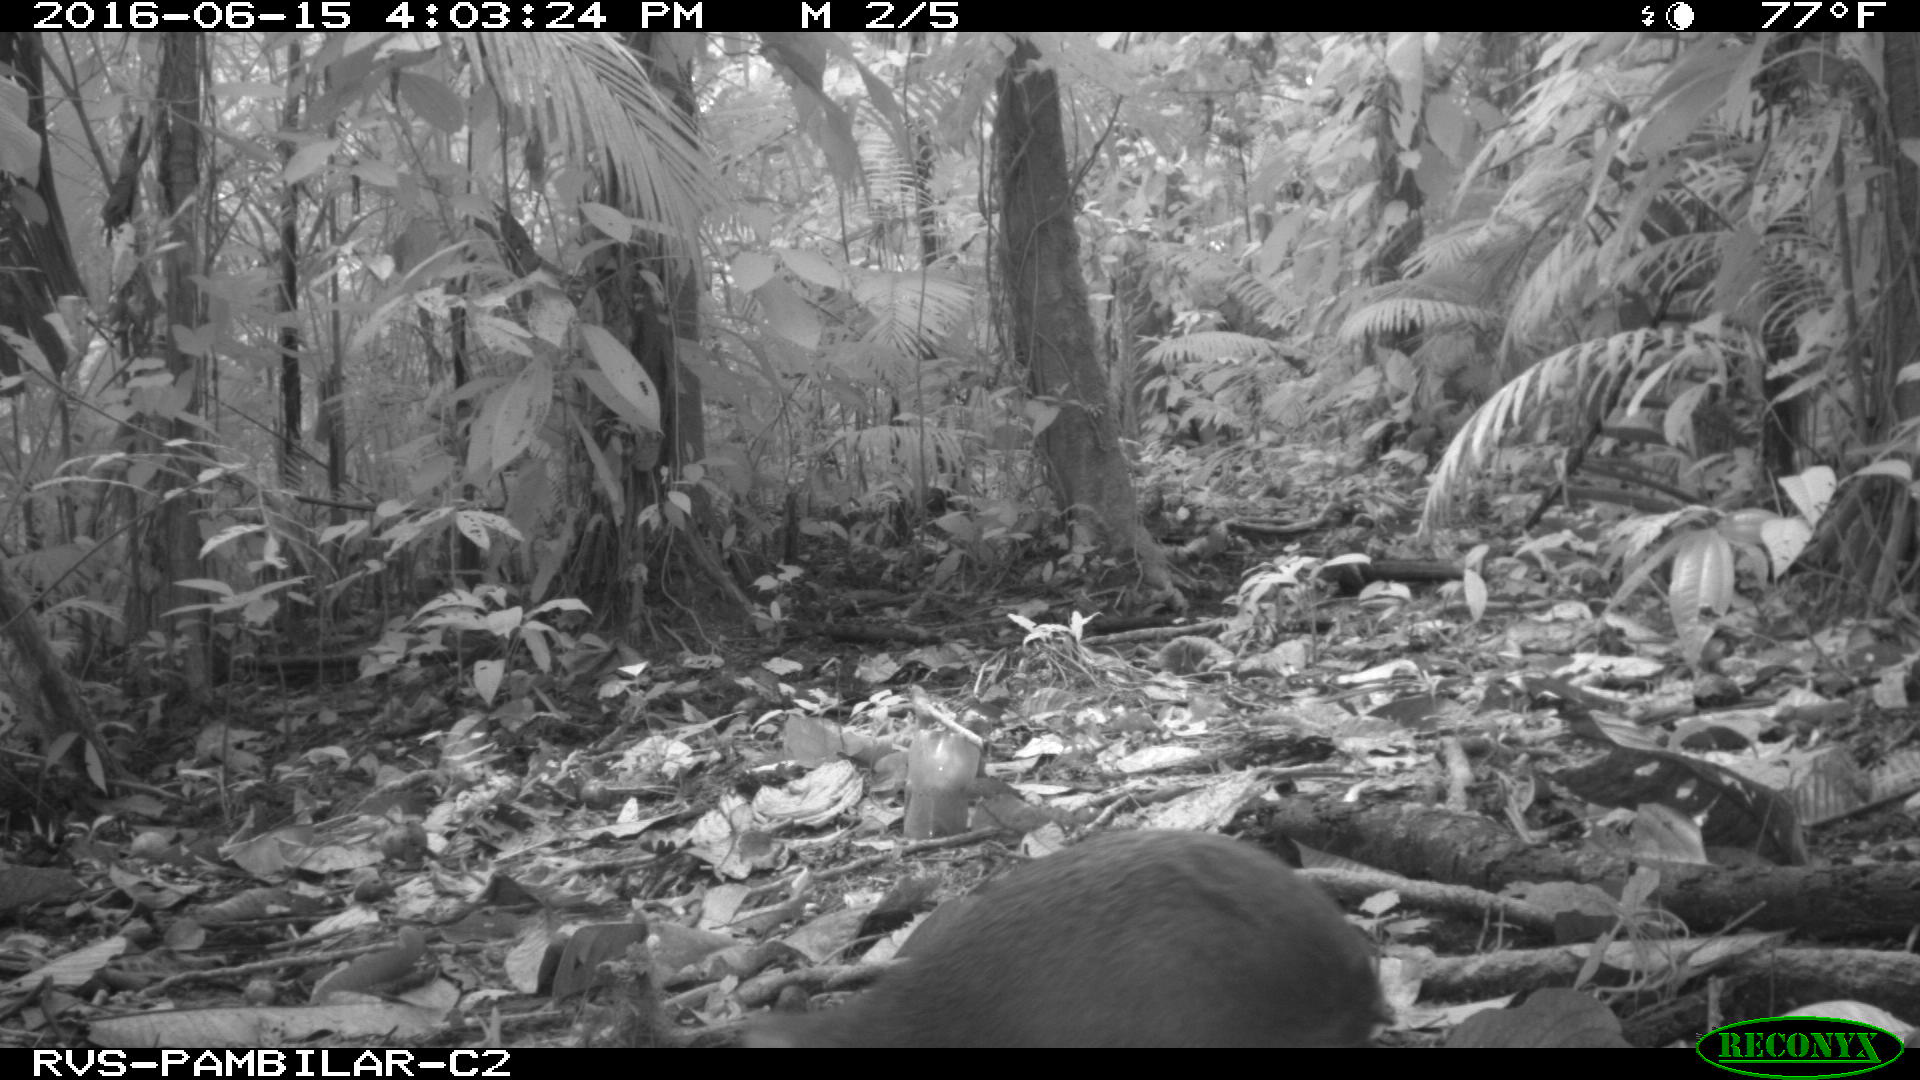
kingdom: Animalia
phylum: Chordata
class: Mammalia
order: Rodentia
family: Dasyproctidae
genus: Dasyprocta
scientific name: Dasyprocta punctata
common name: Central american agouti
